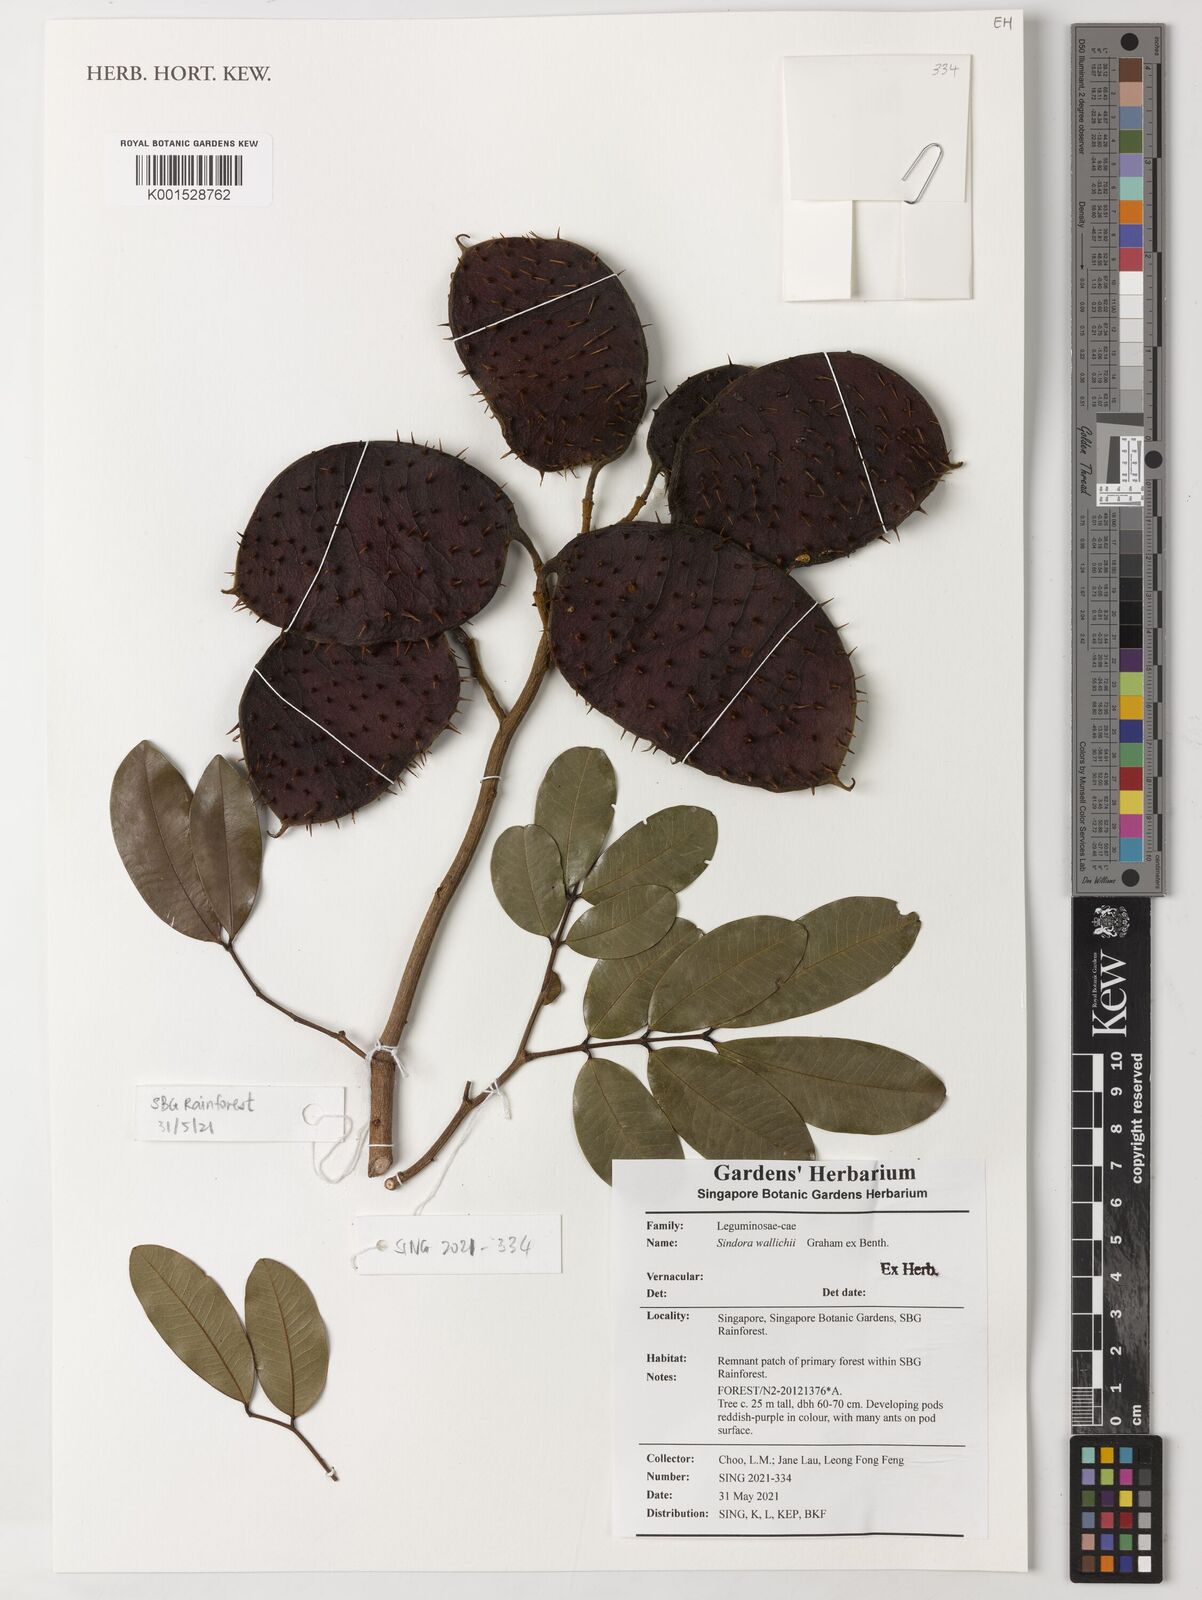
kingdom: Plantae
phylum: Tracheophyta
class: Magnoliopsida
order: Fabales
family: Fabaceae
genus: Sindora
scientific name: Sindora wallichii
